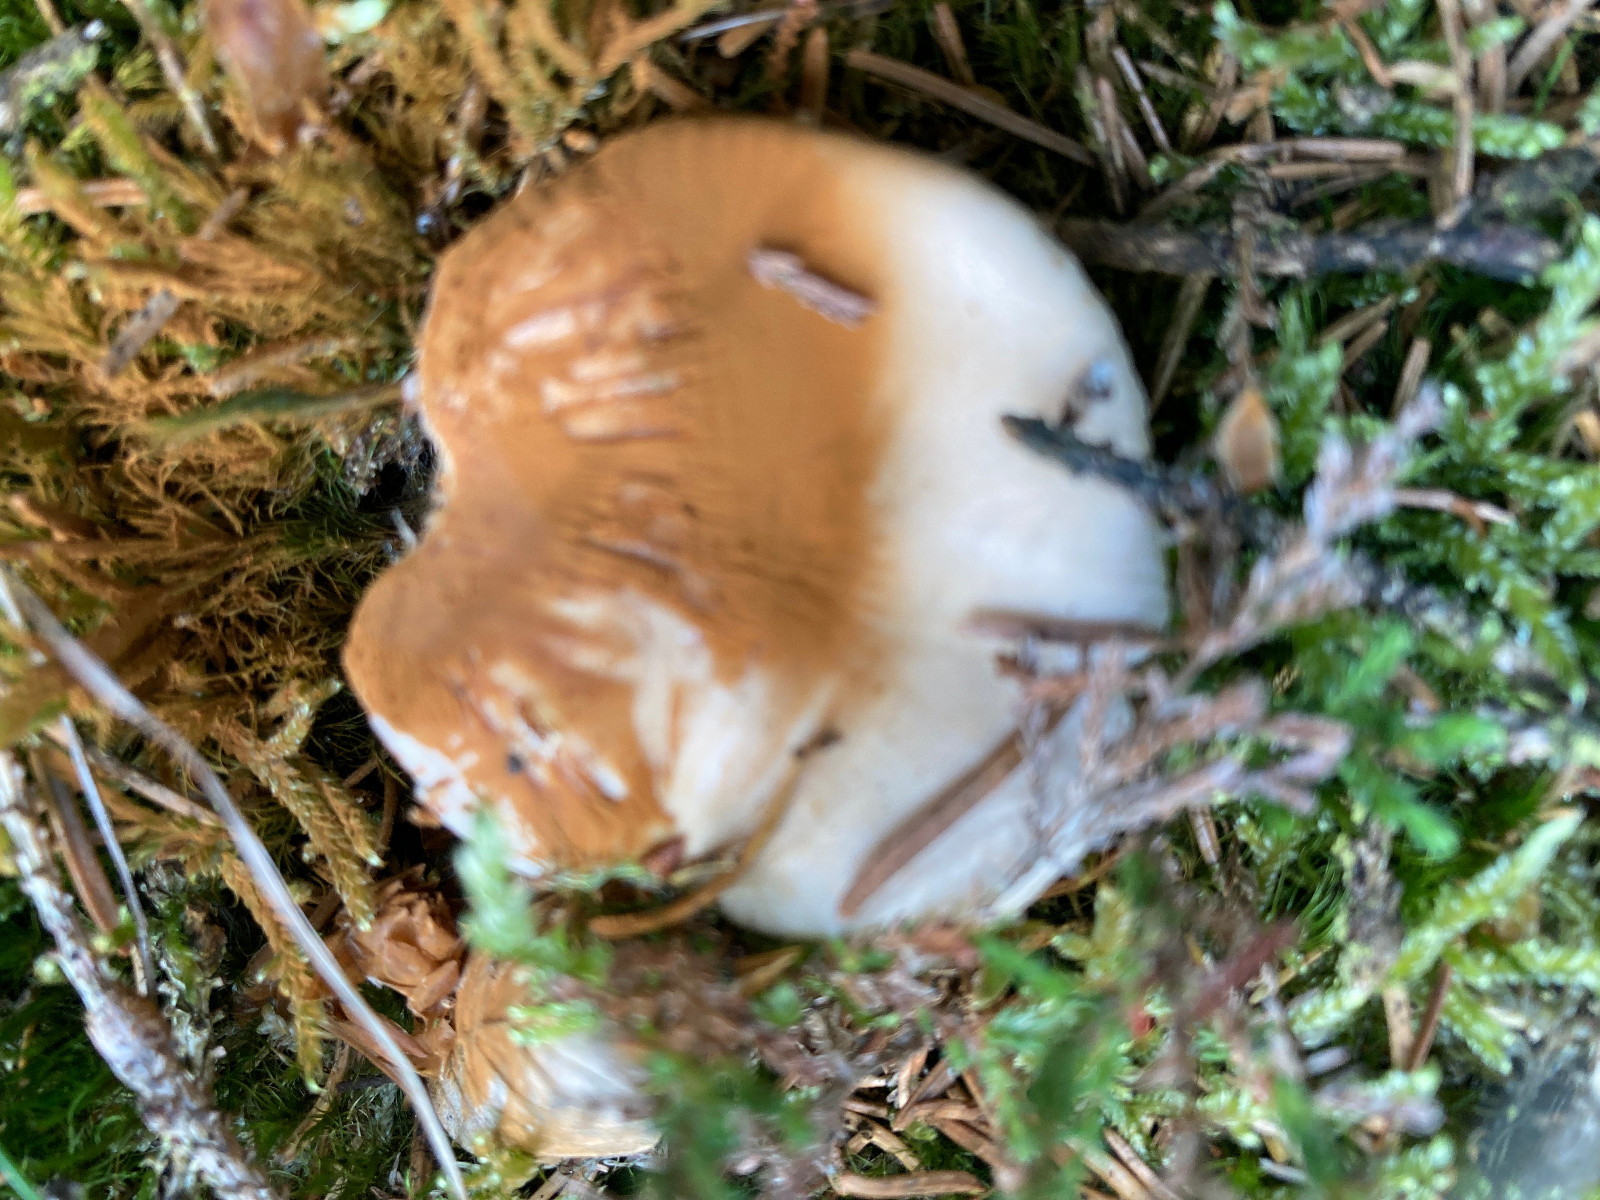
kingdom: Fungi
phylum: Basidiomycota
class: Agaricomycetes
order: Agaricales
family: Cortinariaceae
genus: Cortinarius
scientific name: Cortinarius
